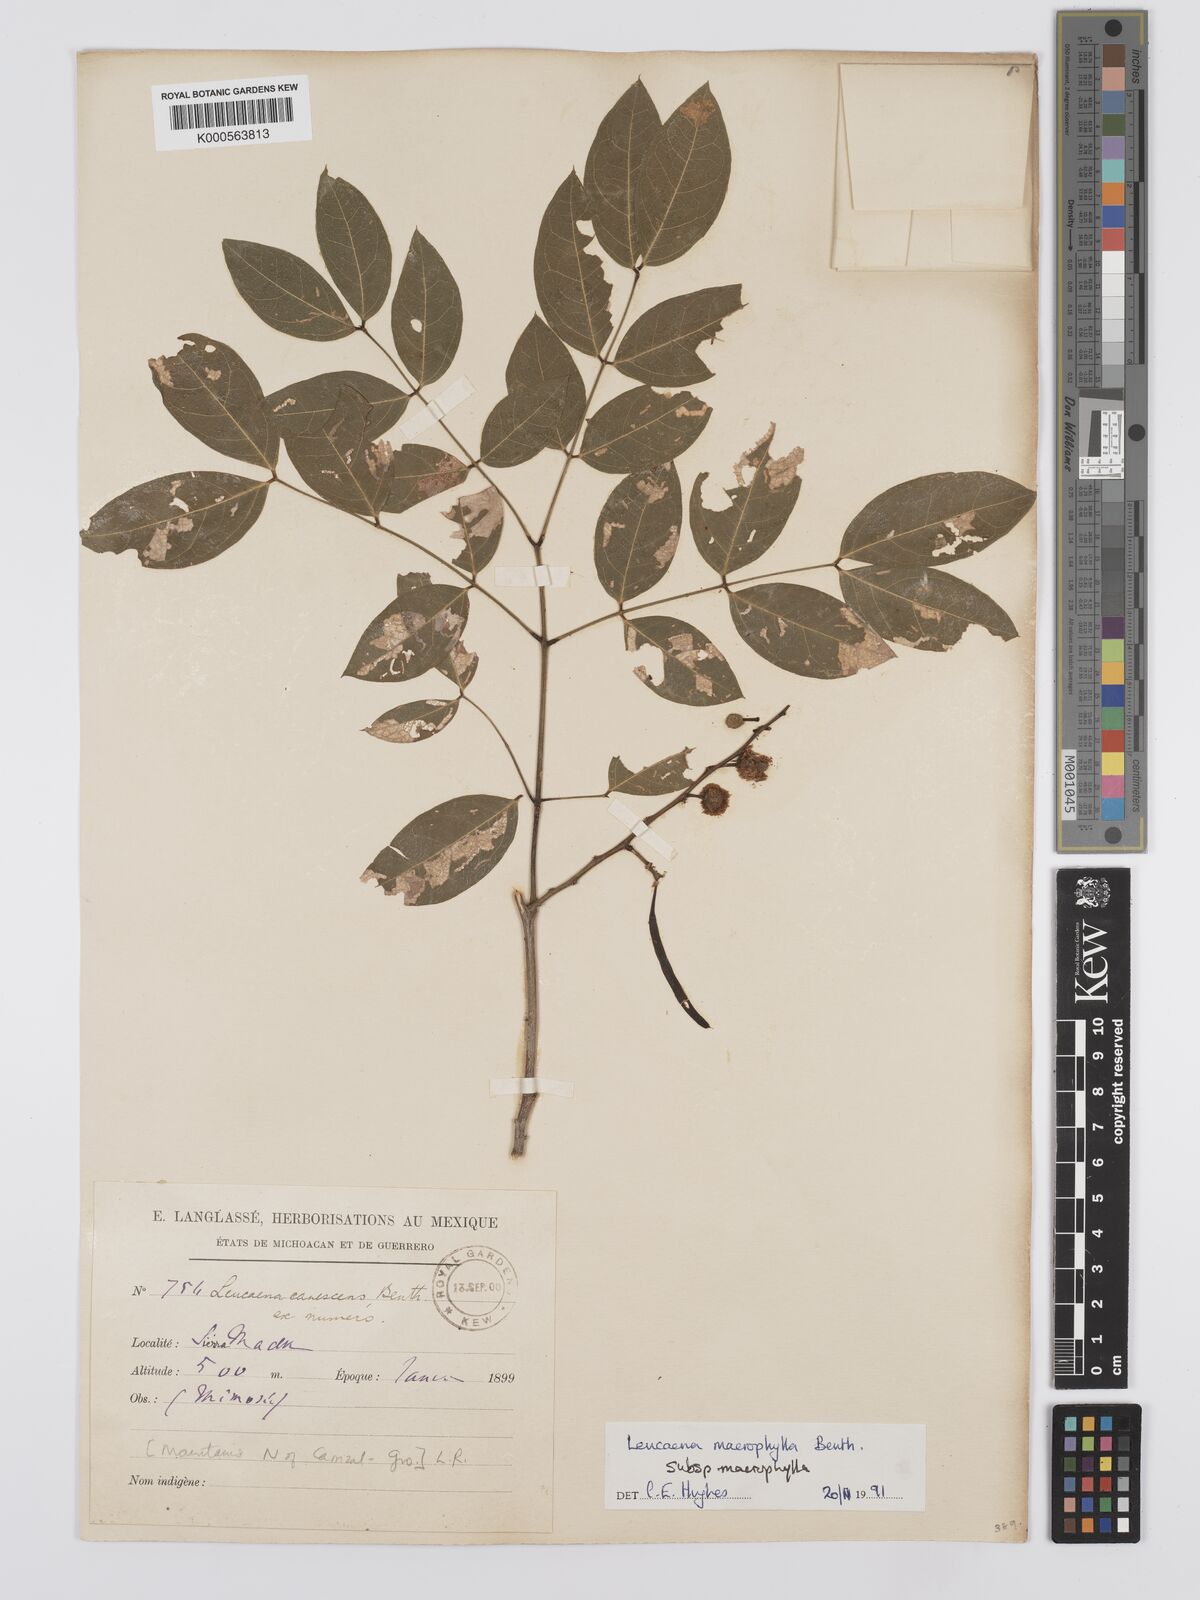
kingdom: Plantae
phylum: Tracheophyta
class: Magnoliopsida
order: Fabales
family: Fabaceae
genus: Leucaena
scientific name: Leucaena macrophylla
